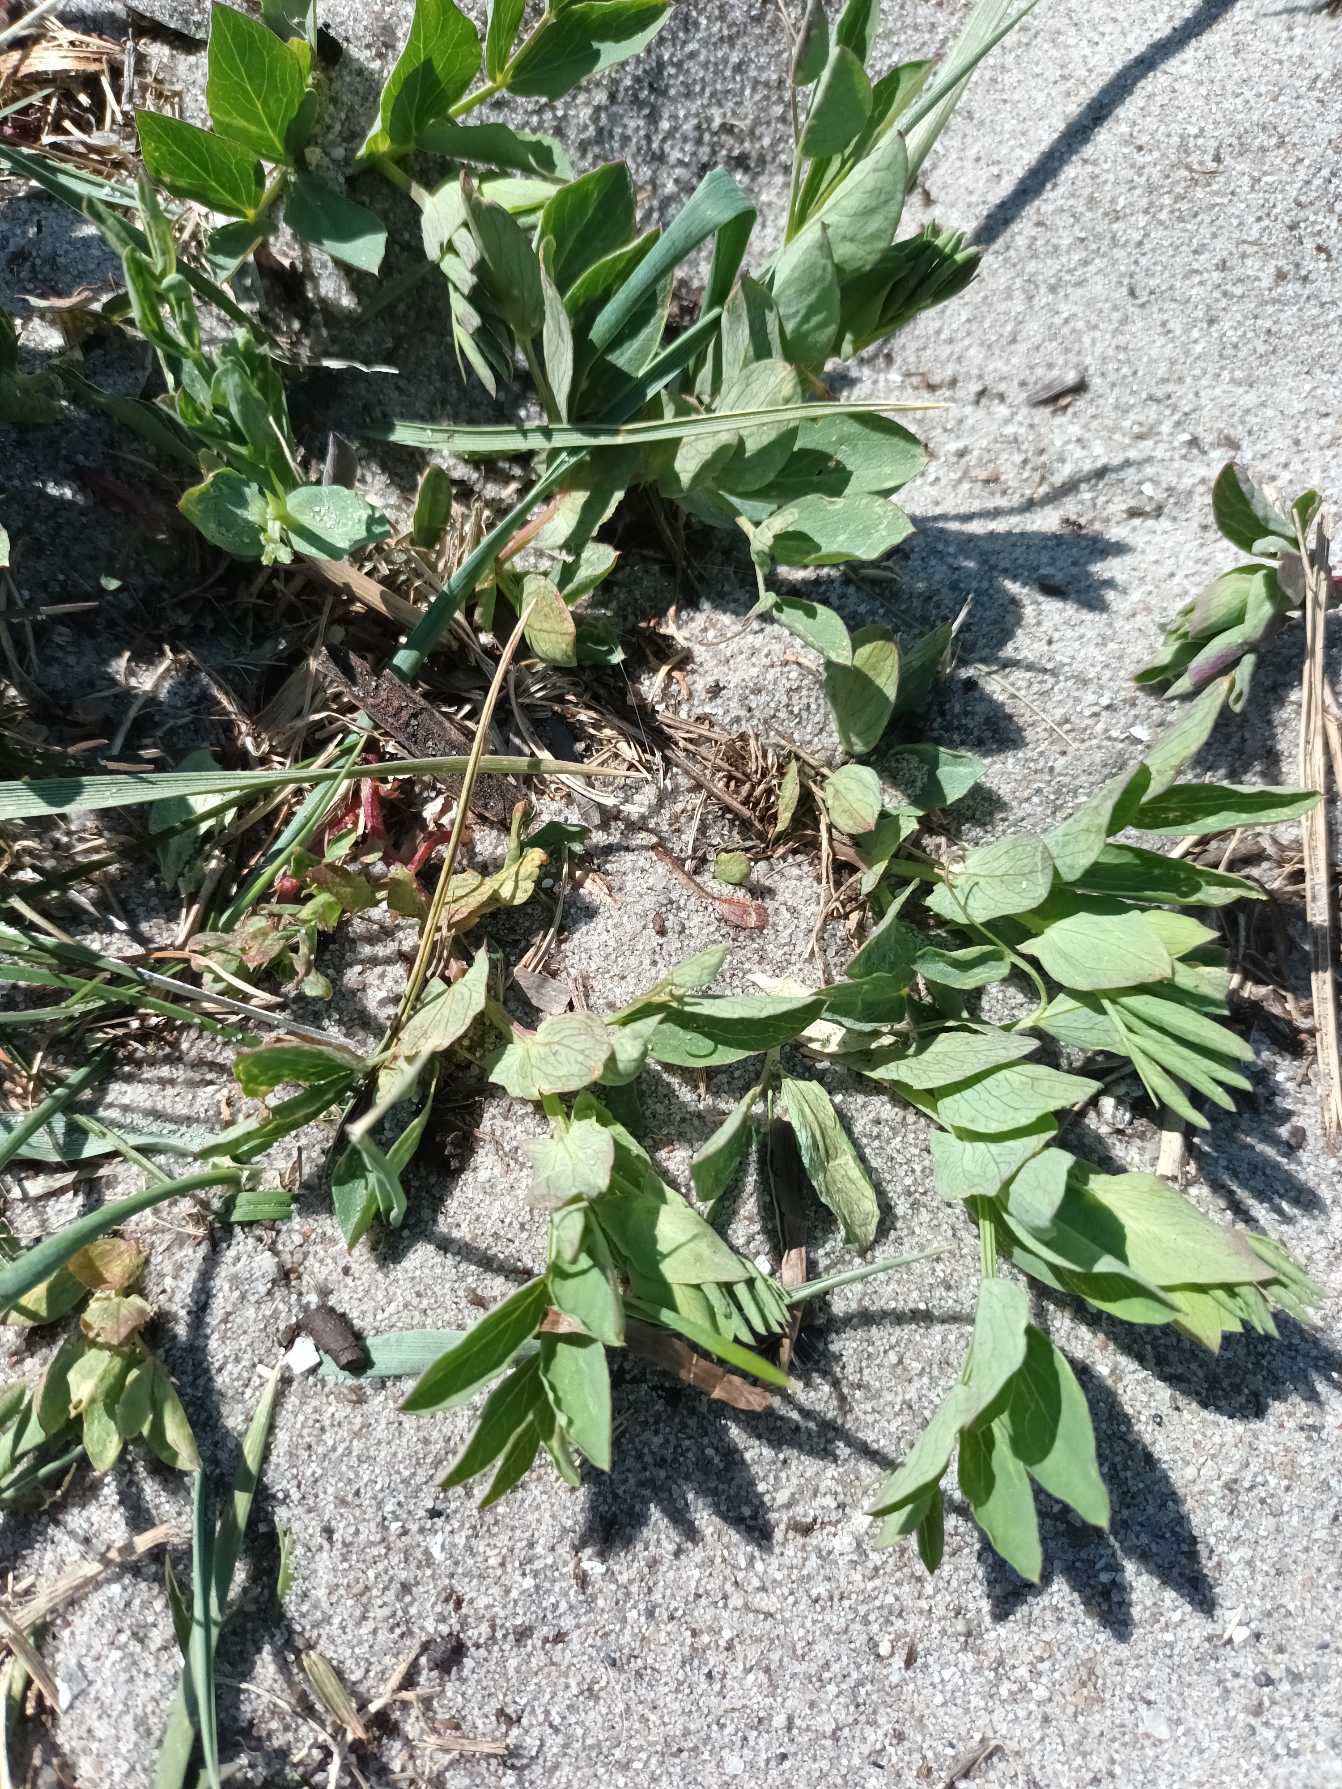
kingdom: Plantae
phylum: Tracheophyta
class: Magnoliopsida
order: Fabales
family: Fabaceae
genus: Lathyrus
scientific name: Lathyrus japonicus
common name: Klit-fladbælg
